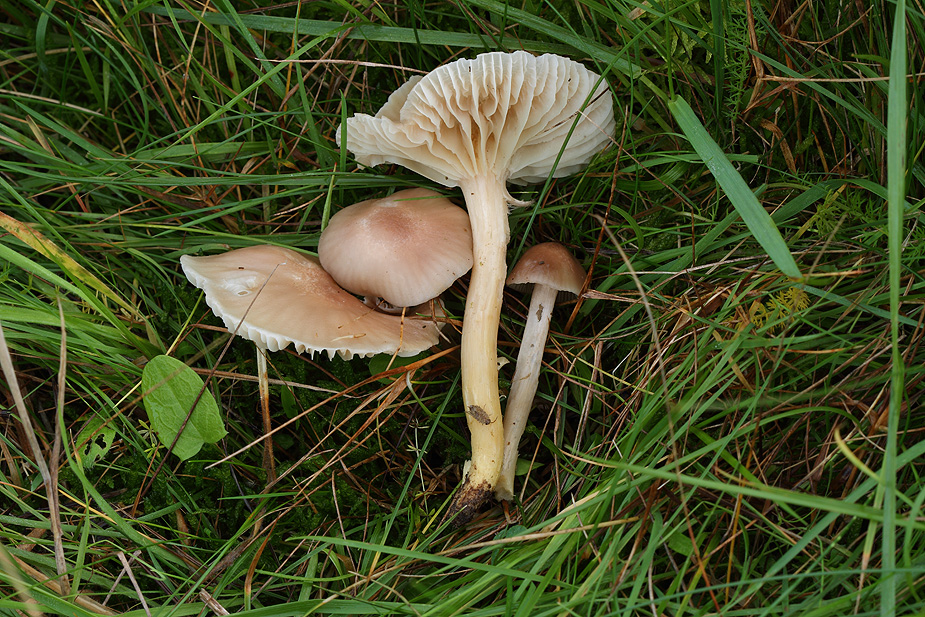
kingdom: Fungi
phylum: Basidiomycota
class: Agaricomycetes
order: Agaricales
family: Hygrophoraceae
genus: Cuphophyllus
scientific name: Cuphophyllus flavipes
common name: gulfodet vokshat
